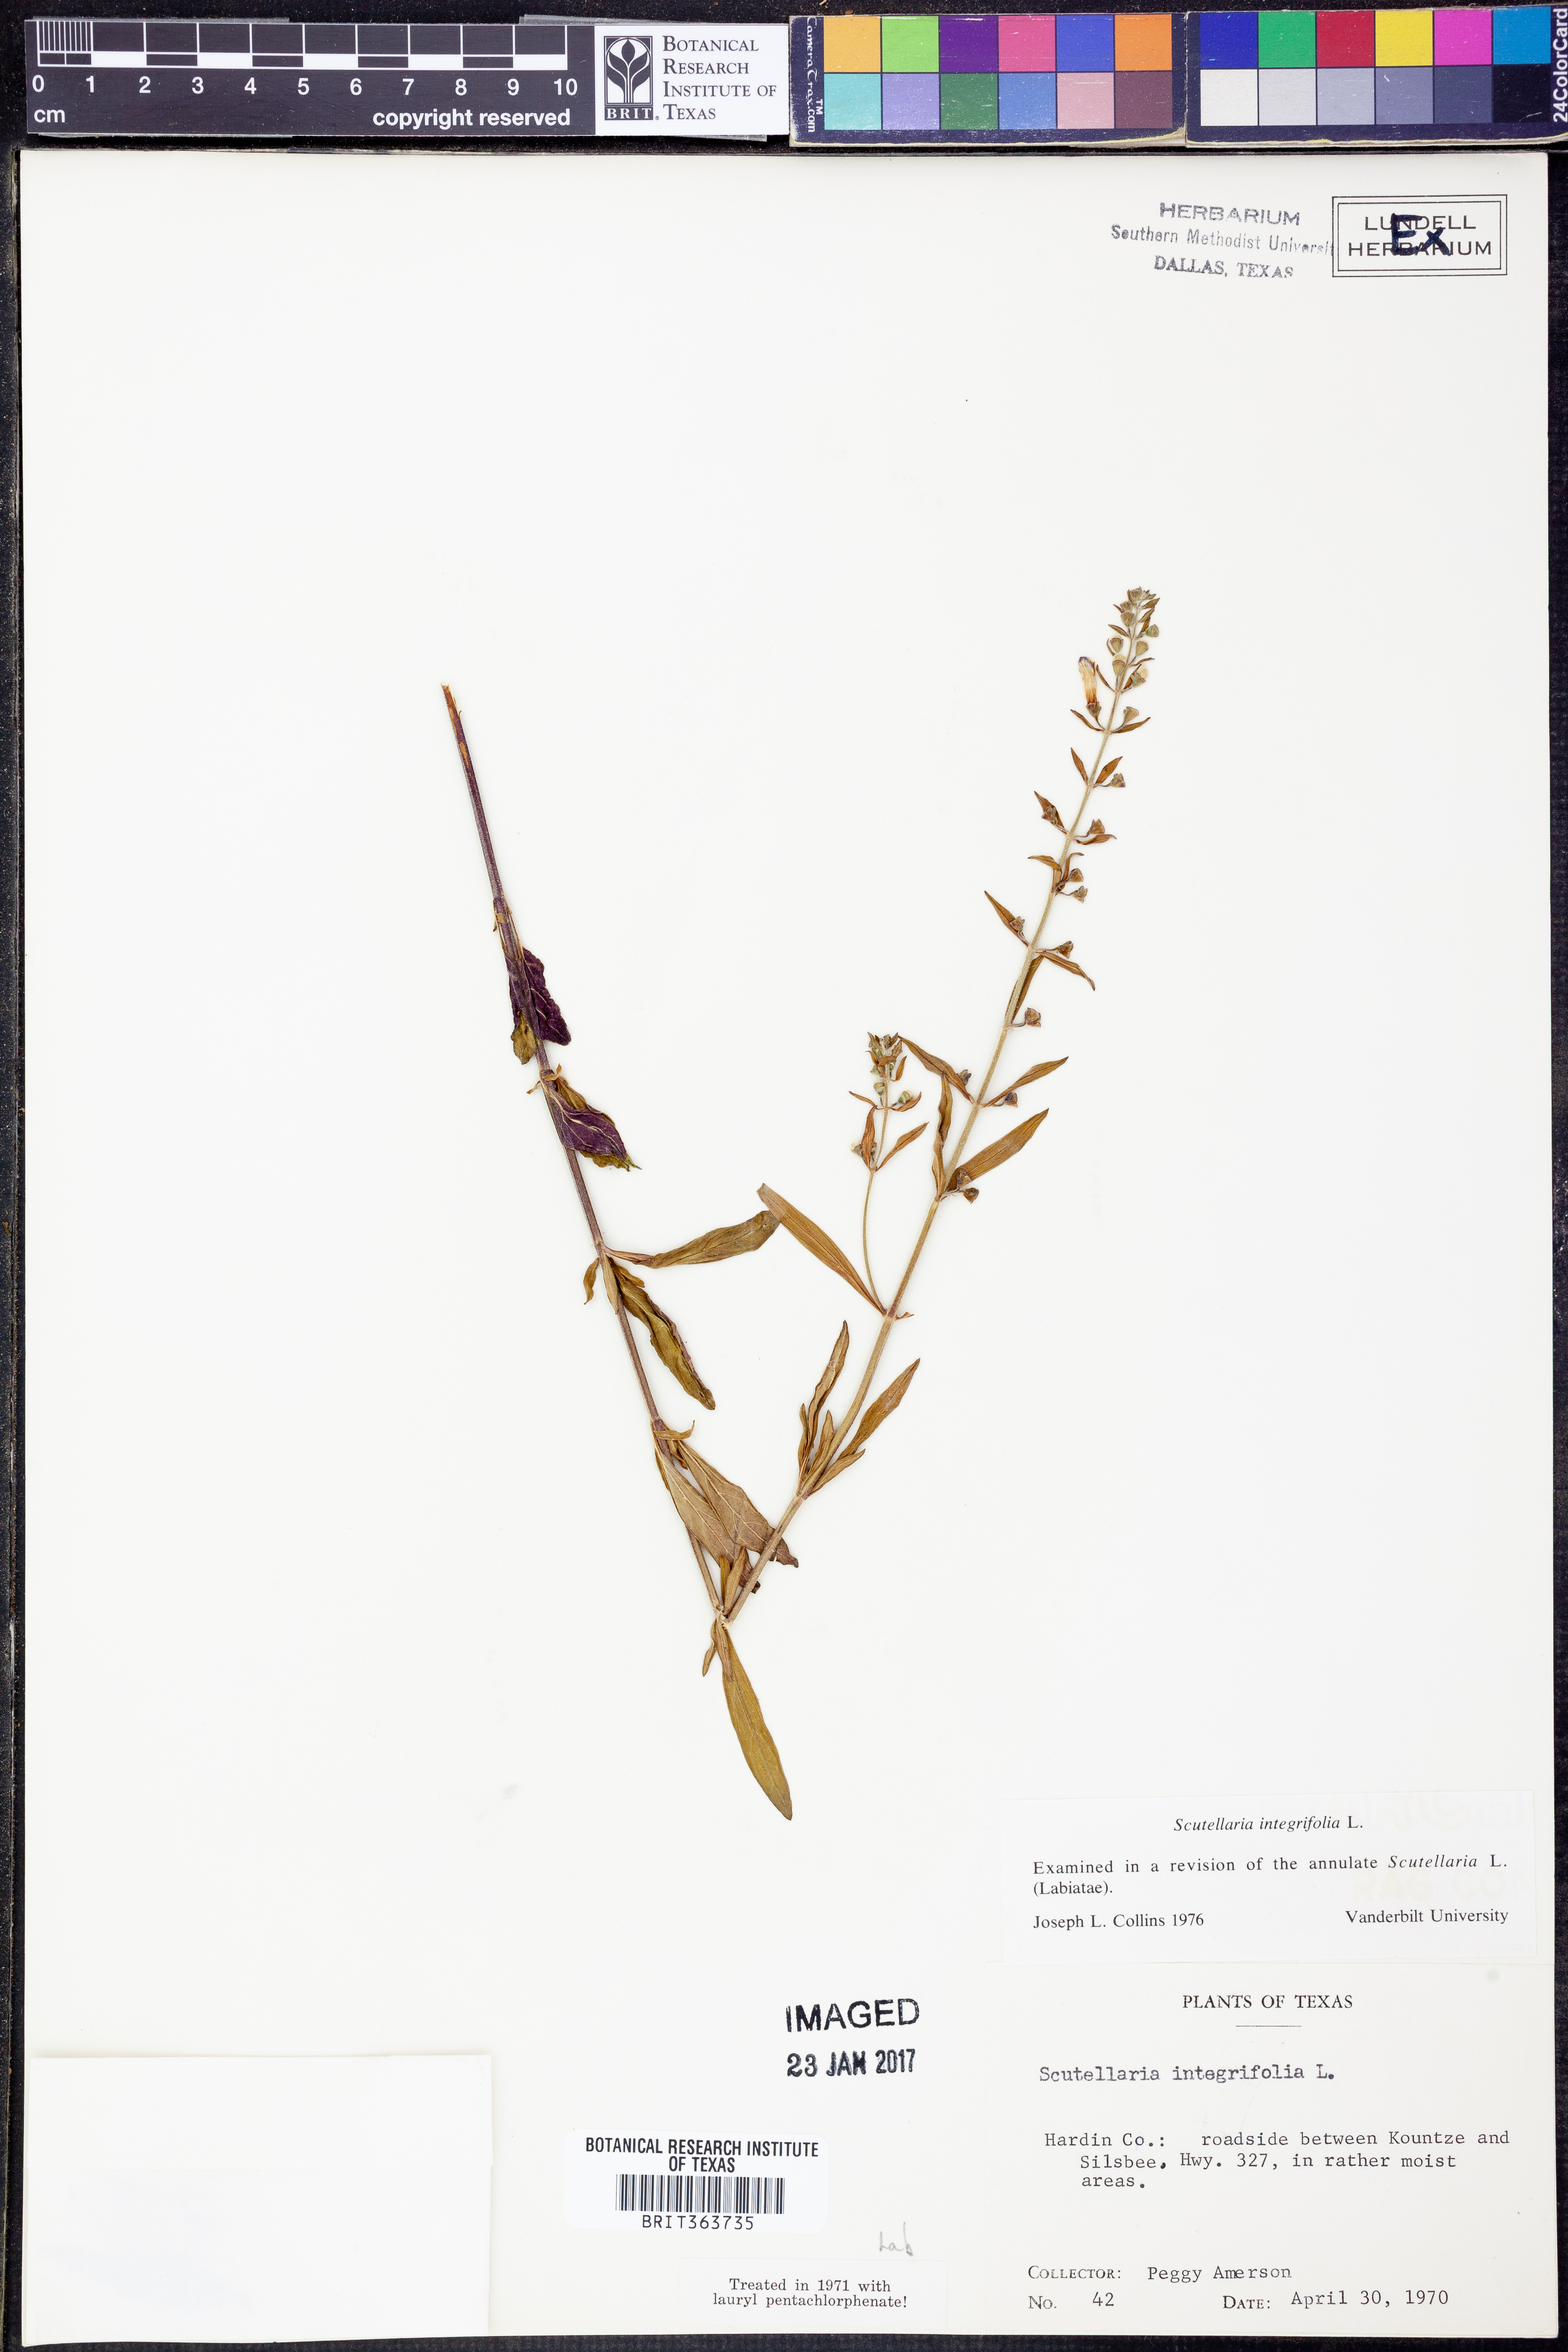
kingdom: Plantae
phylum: Tracheophyta
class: Magnoliopsida
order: Lamiales
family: Lamiaceae
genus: Scutellaria
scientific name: Scutellaria integrifolia
